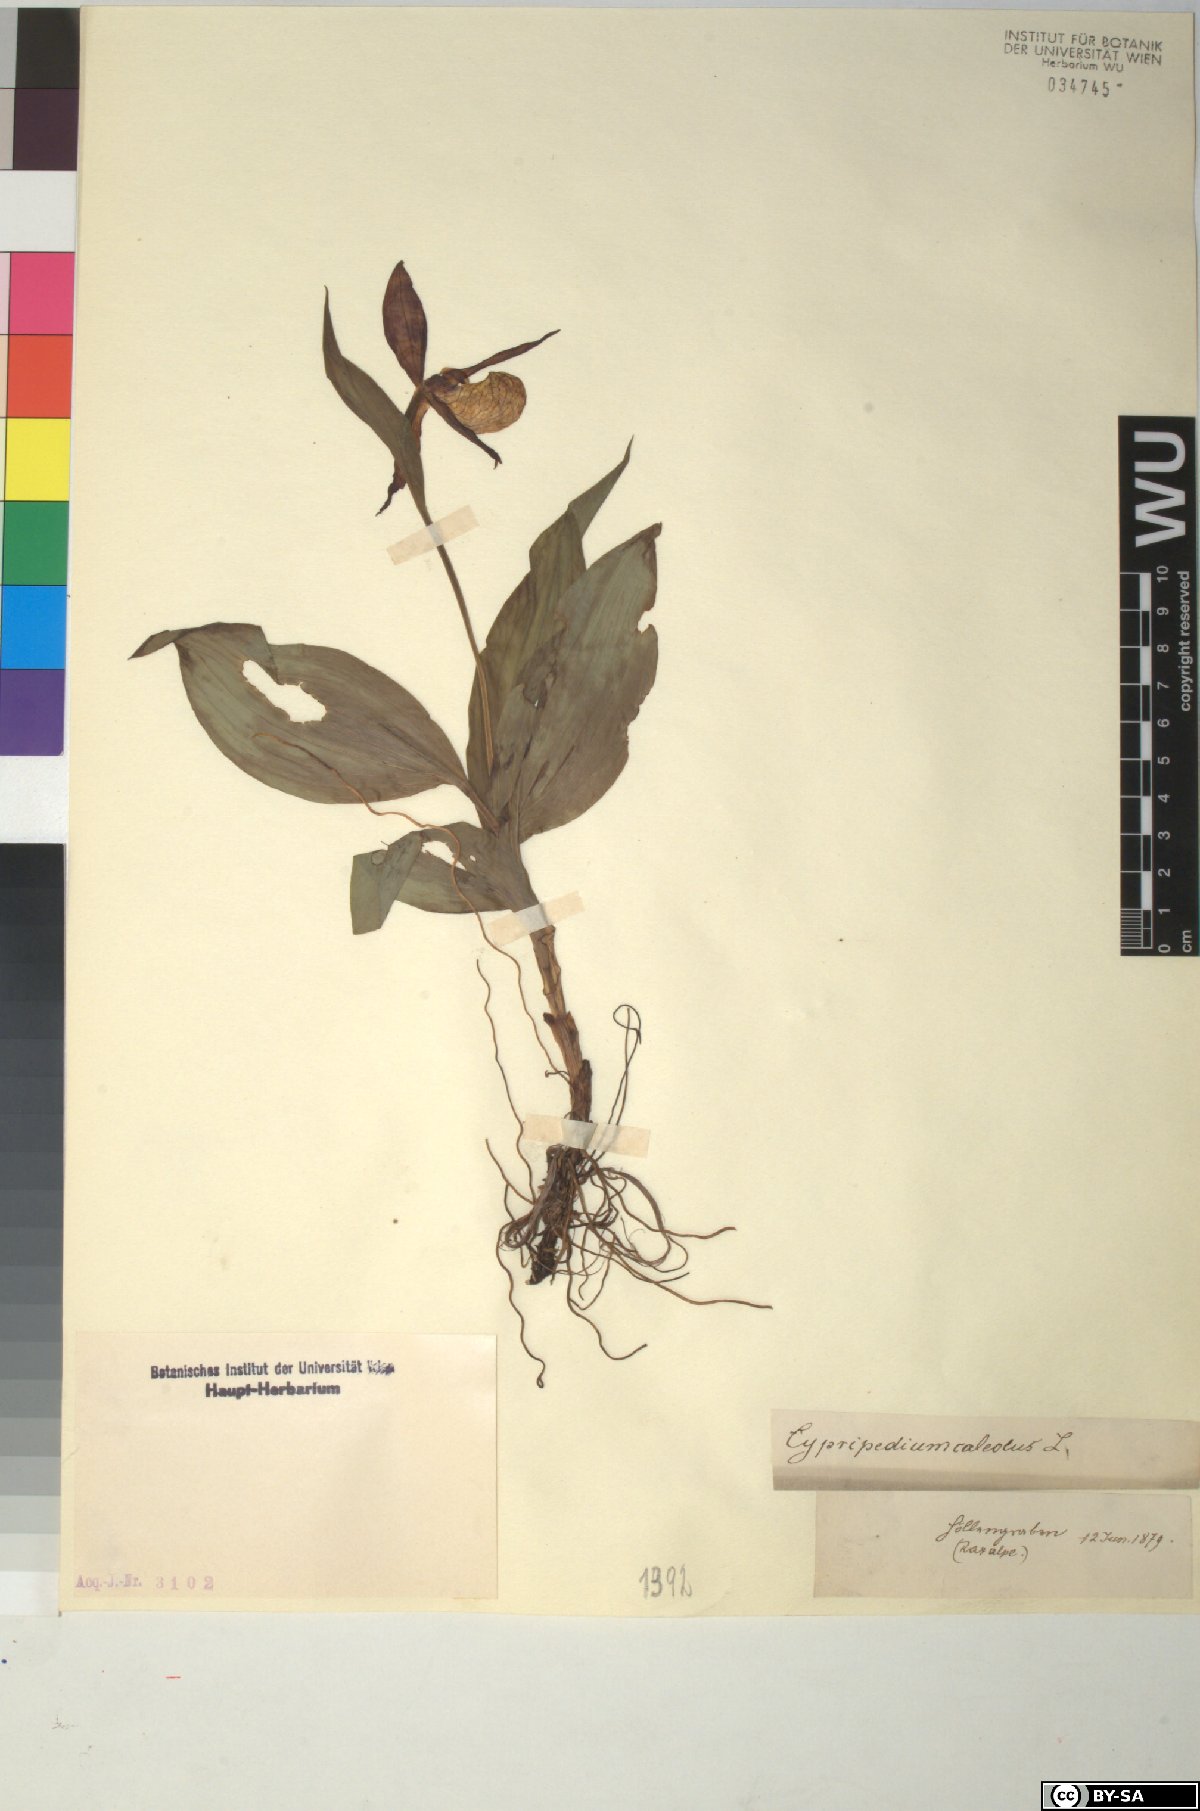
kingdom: Plantae
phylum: Tracheophyta
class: Liliopsida
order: Asparagales
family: Orchidaceae
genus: Cypripedium
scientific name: Cypripedium calceolus
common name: Lady's-slipper
